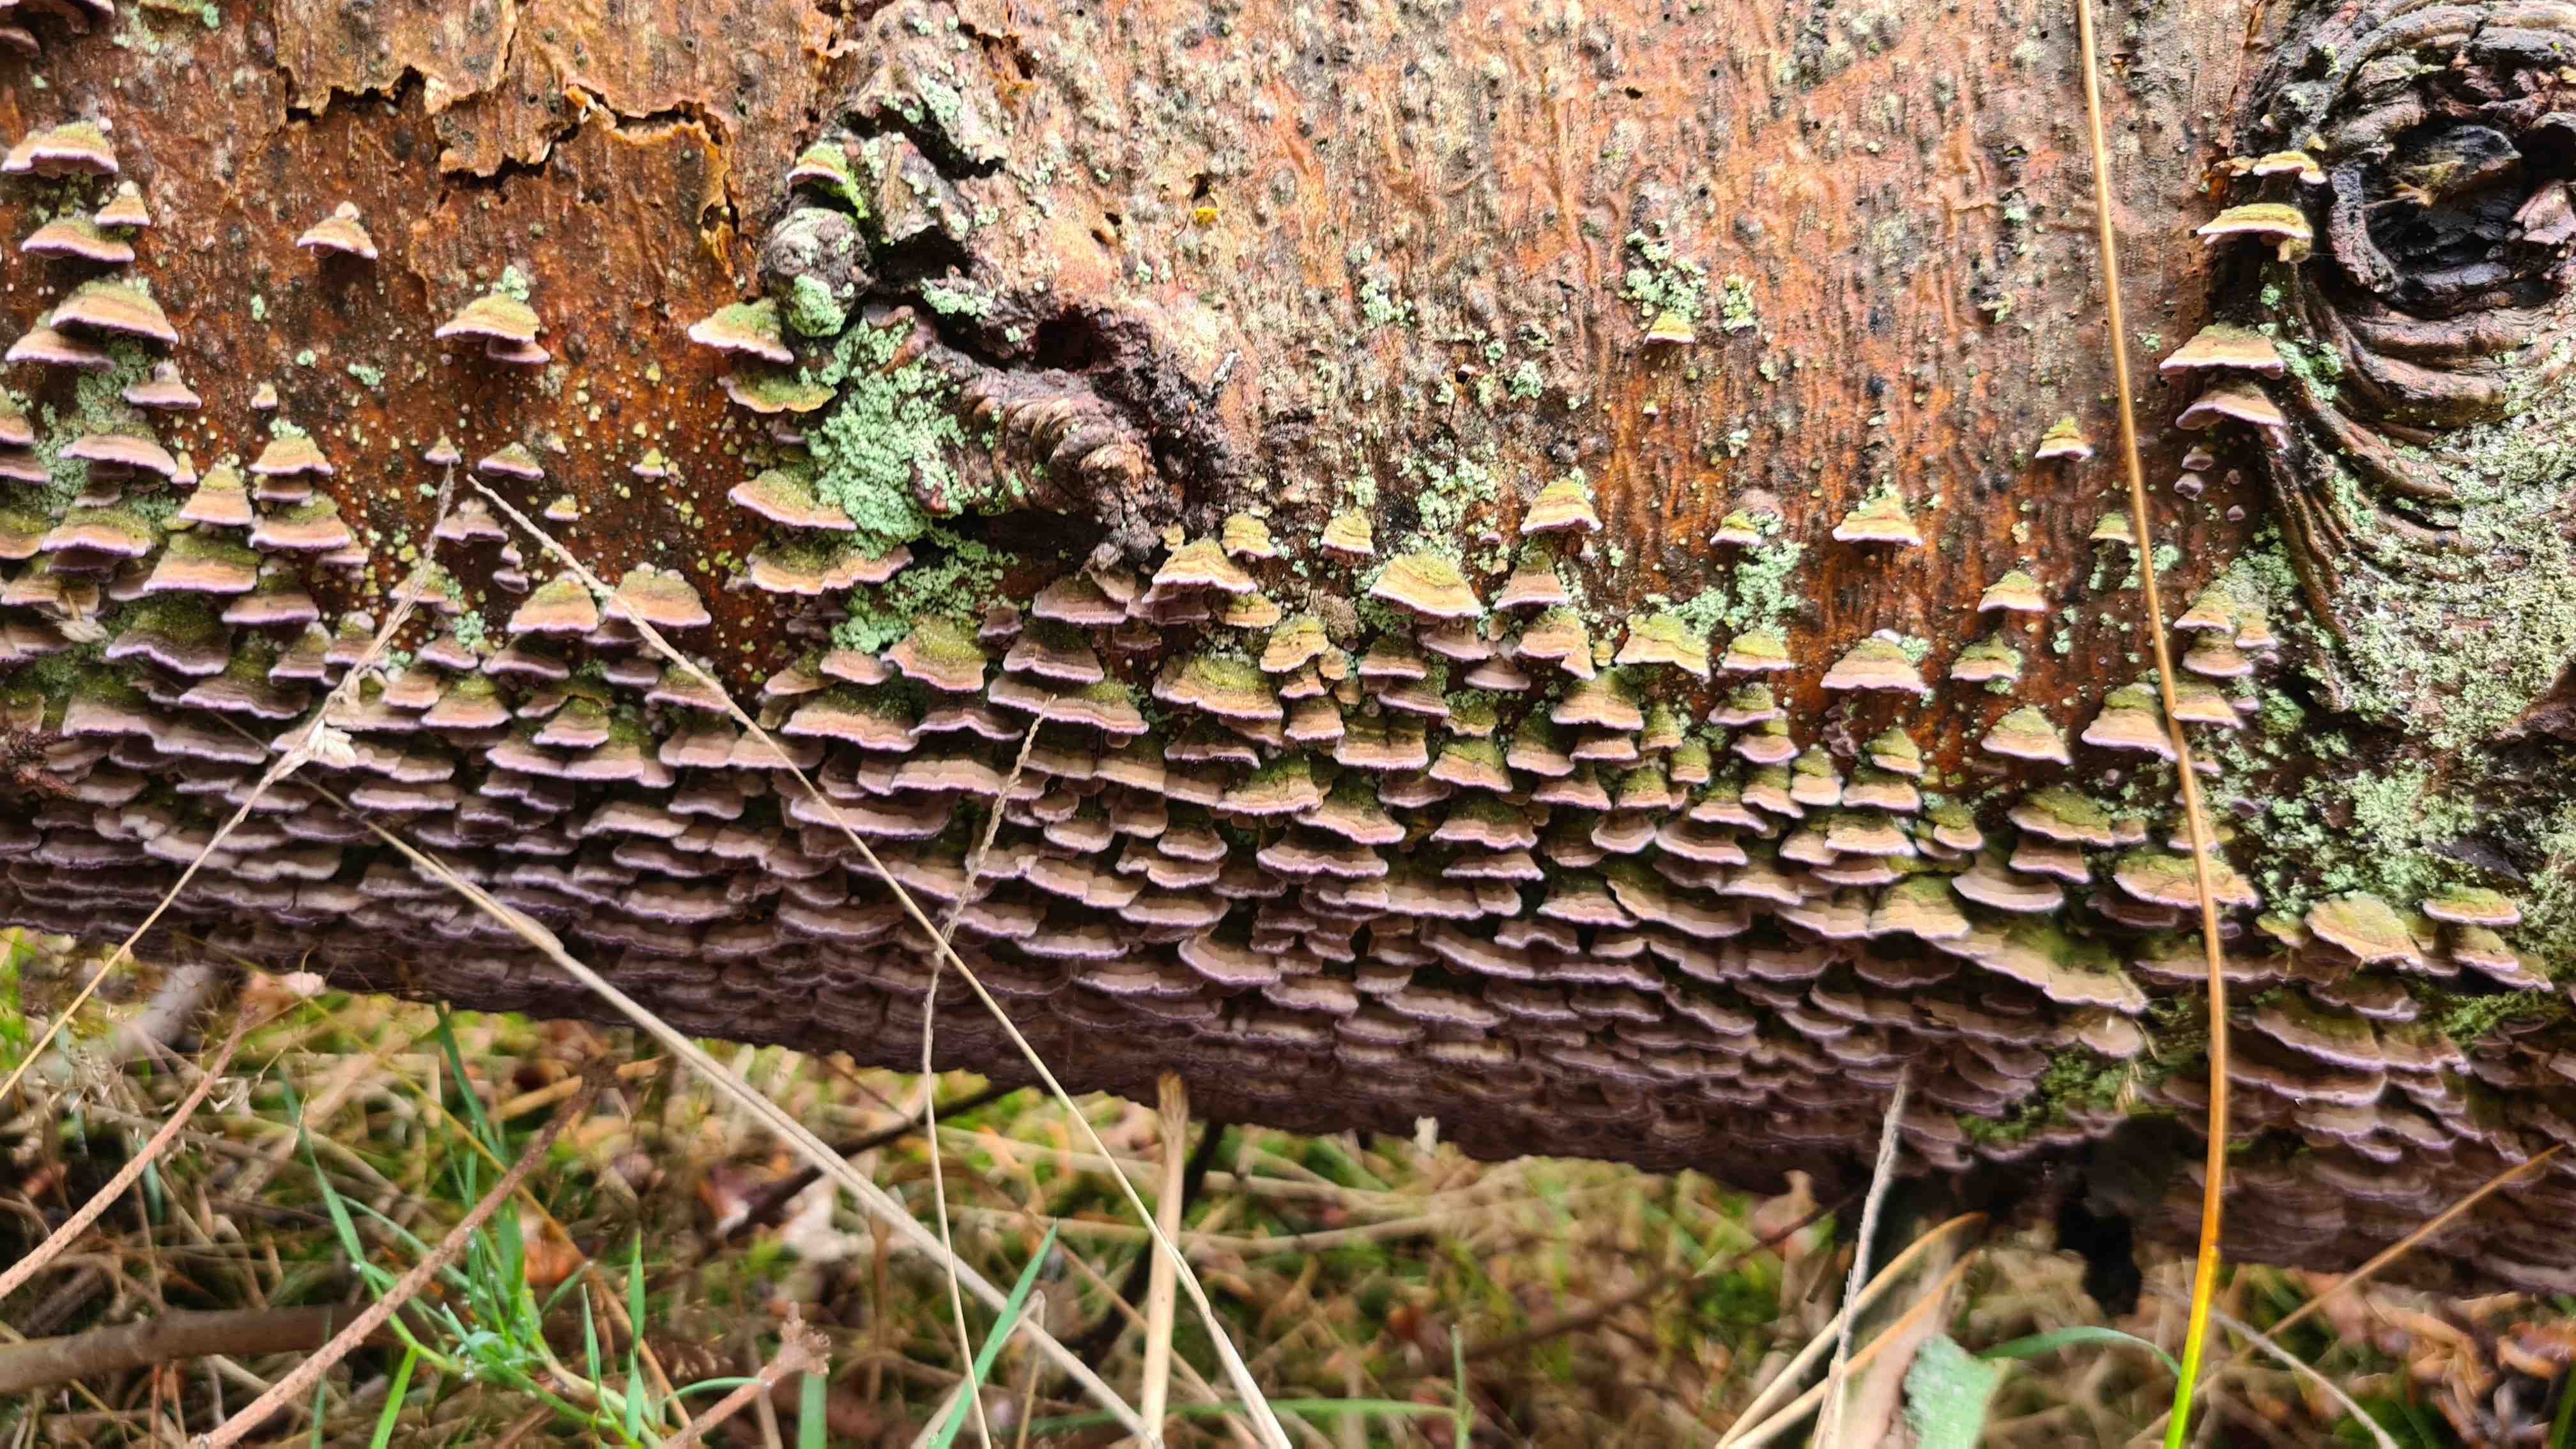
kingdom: Fungi
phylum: Basidiomycota
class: Agaricomycetes
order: Hymenochaetales
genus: Trichaptum
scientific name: Trichaptum abietinum
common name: almindelig violporesvamp
